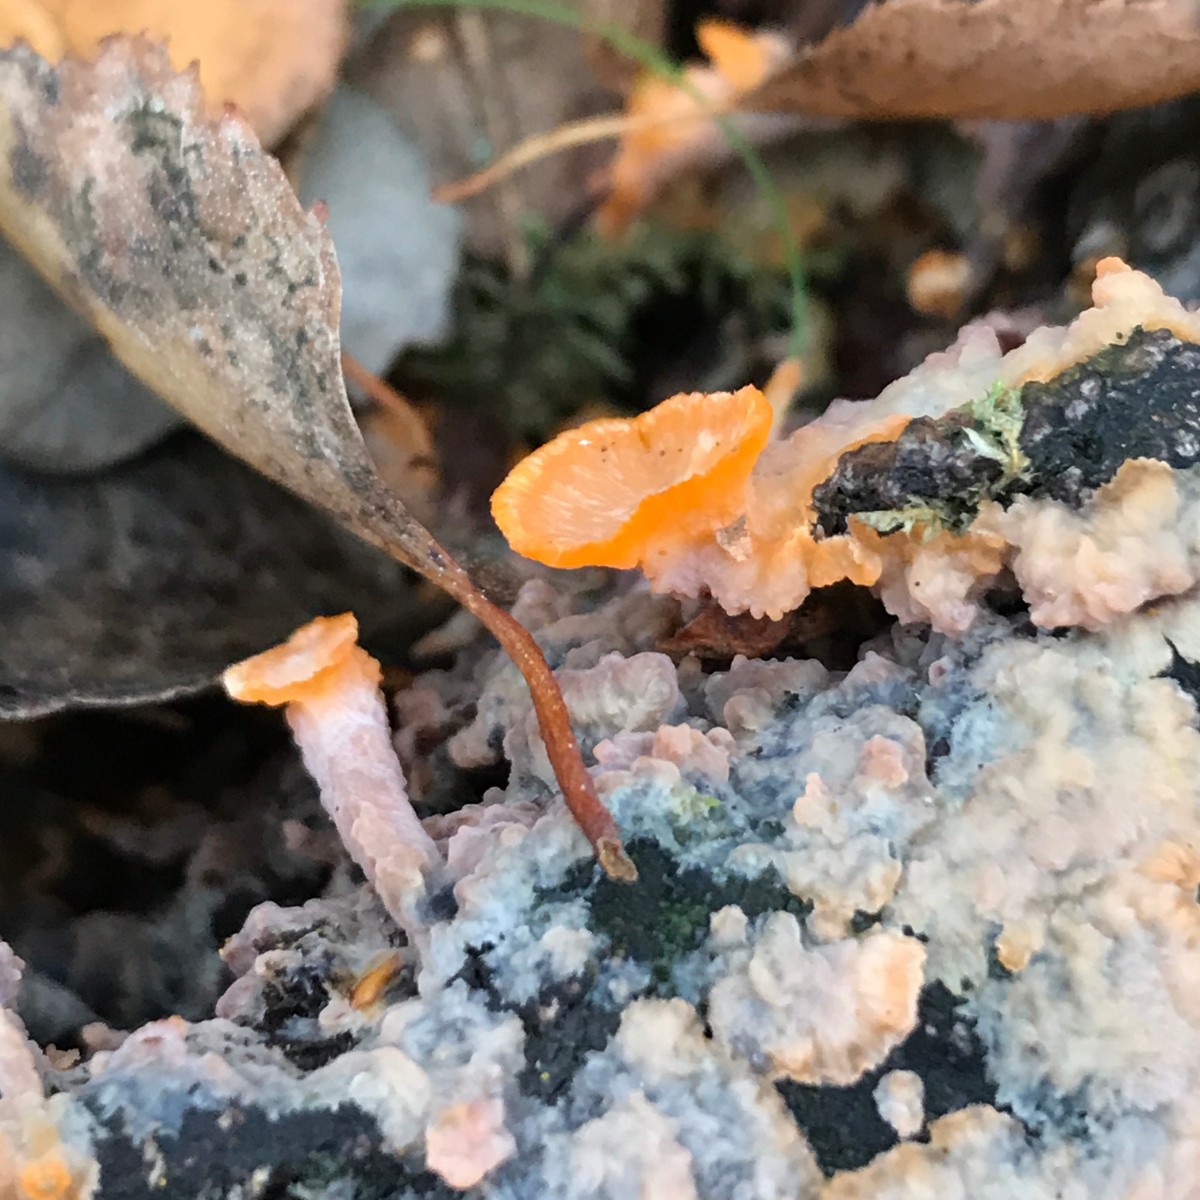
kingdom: Fungi
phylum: Basidiomycota
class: Agaricomycetes
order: Polyporales
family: Meruliaceae
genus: Phlebia
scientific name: Phlebia radiata
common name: stråle-åresvamp
